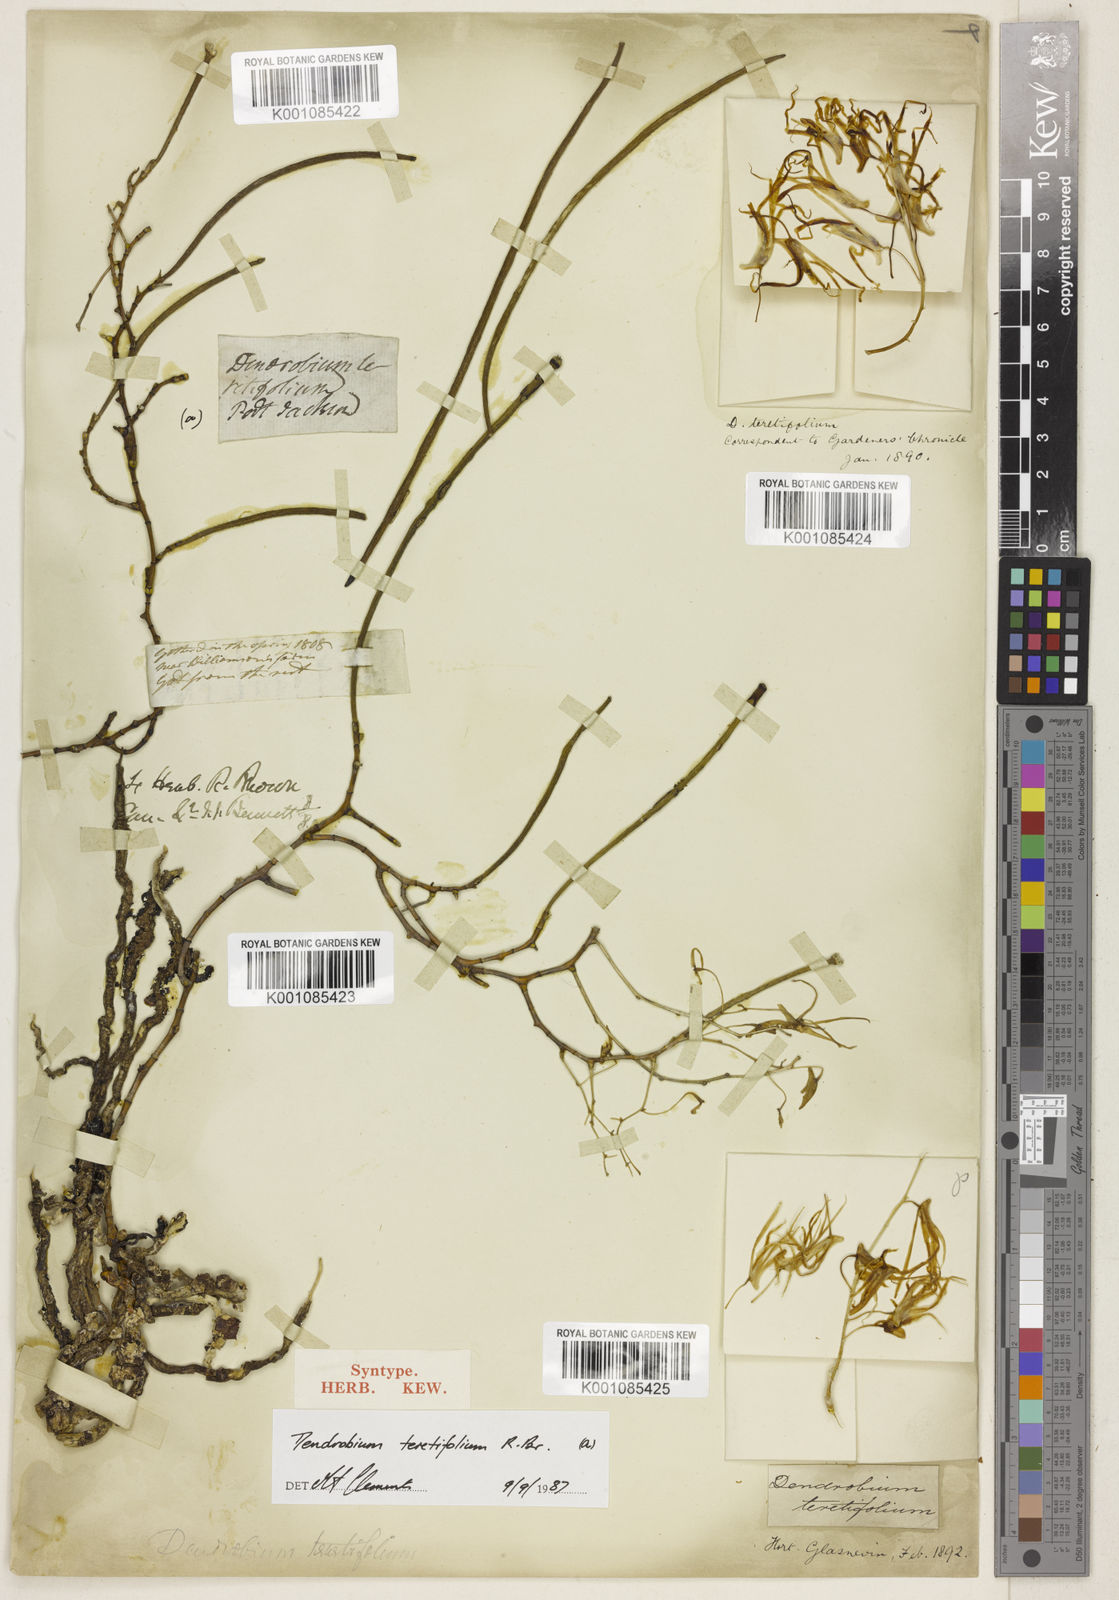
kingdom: Plantae
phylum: Tracheophyta
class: Liliopsida
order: Asparagales
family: Orchidaceae
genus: Dendrobium
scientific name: Dendrobium teretifolium
